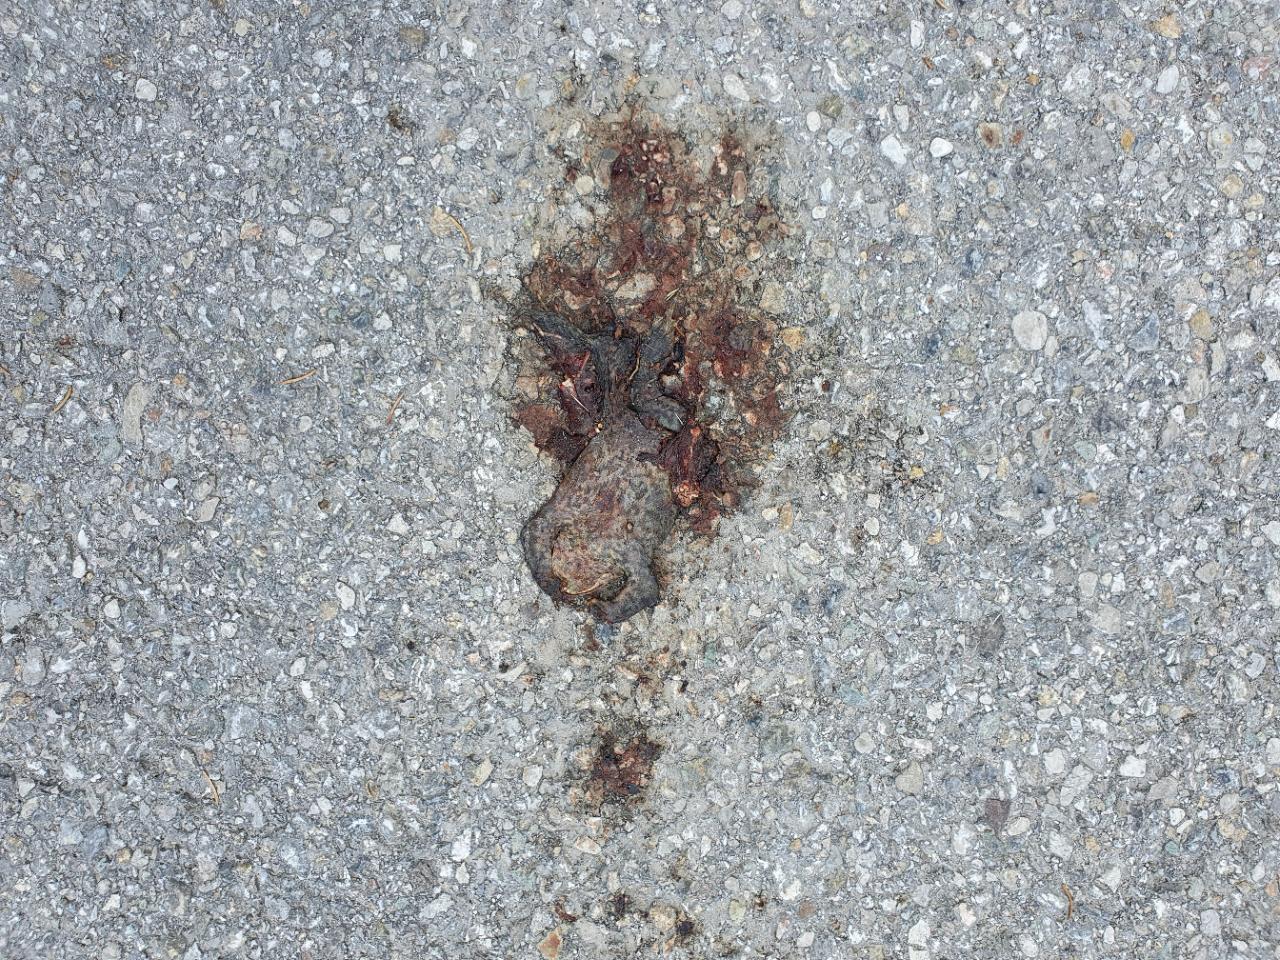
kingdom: Animalia
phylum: Chordata
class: Amphibia
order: Anura
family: Bufonidae
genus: Bufo
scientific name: Bufo bufo
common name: Common toad
